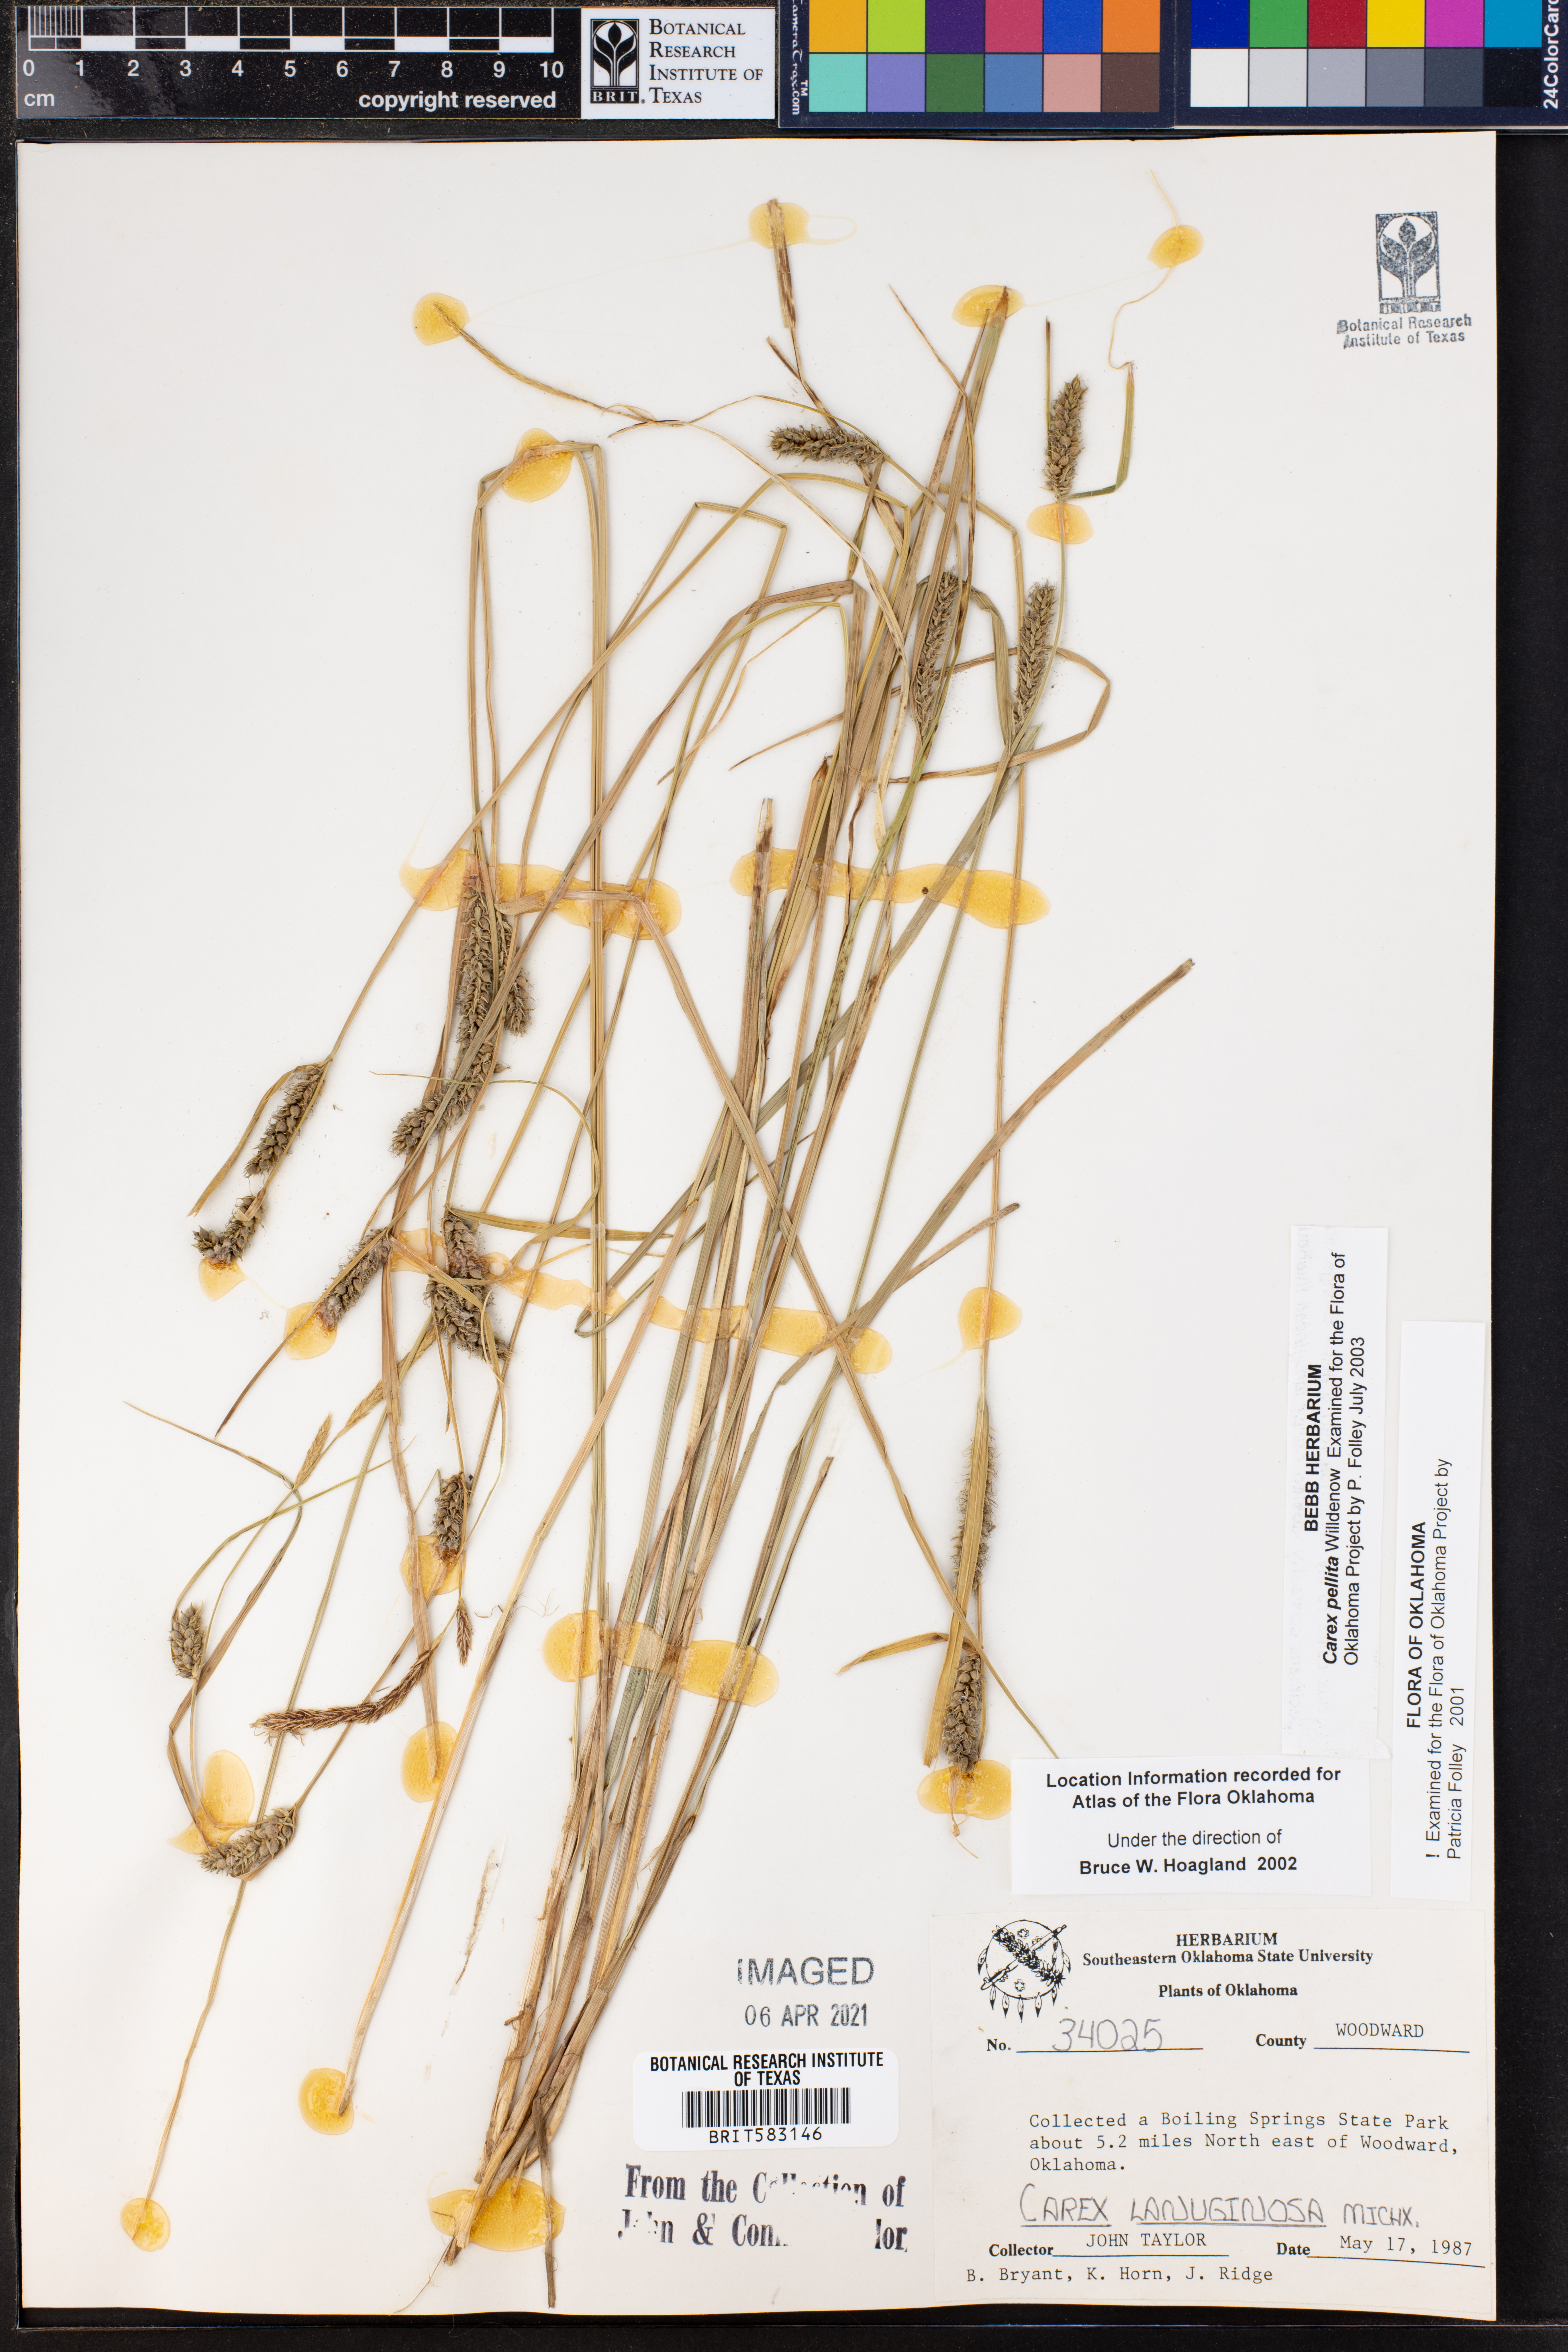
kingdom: Plantae
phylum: Tracheophyta
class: Liliopsida
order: Poales
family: Cyperaceae
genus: Carex
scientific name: Carex pellita
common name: Woolly sedge
